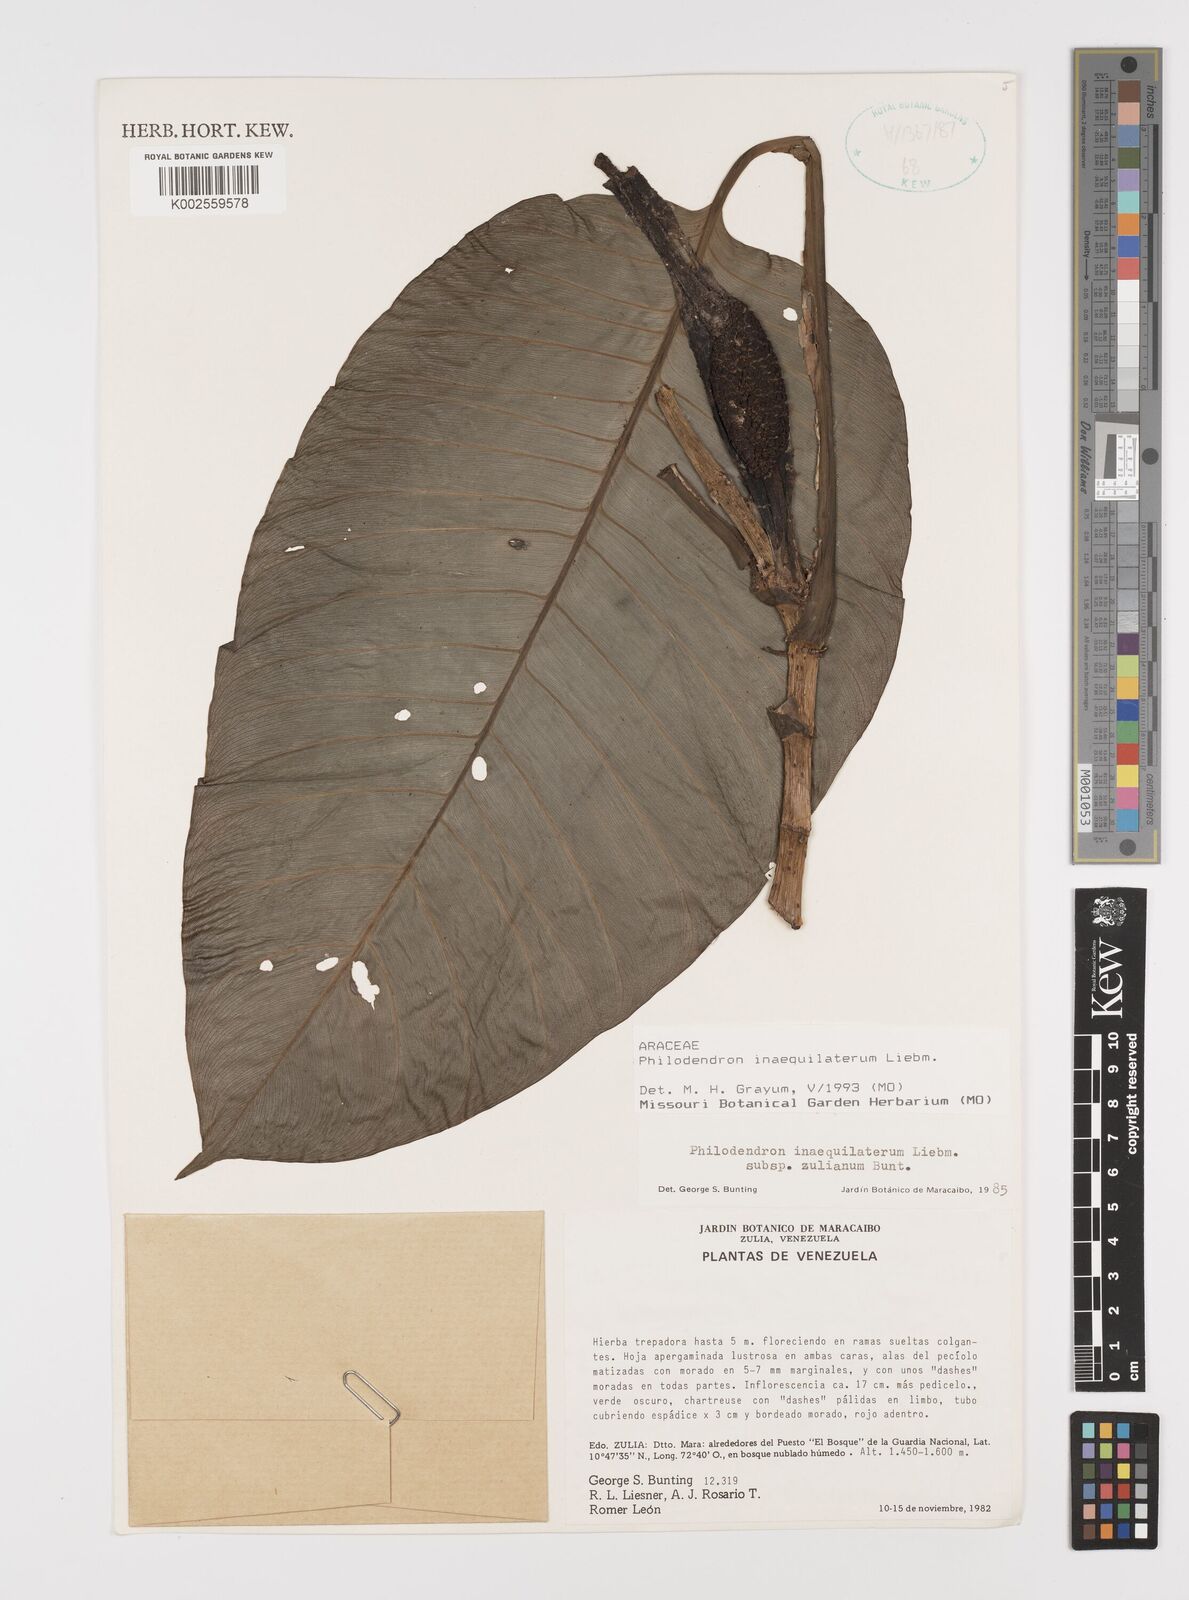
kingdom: Plantae
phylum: Tracheophyta
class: Liliopsida
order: Alismatales
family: Araceae
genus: Philodendron
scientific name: Philodendron inaequilaterum
